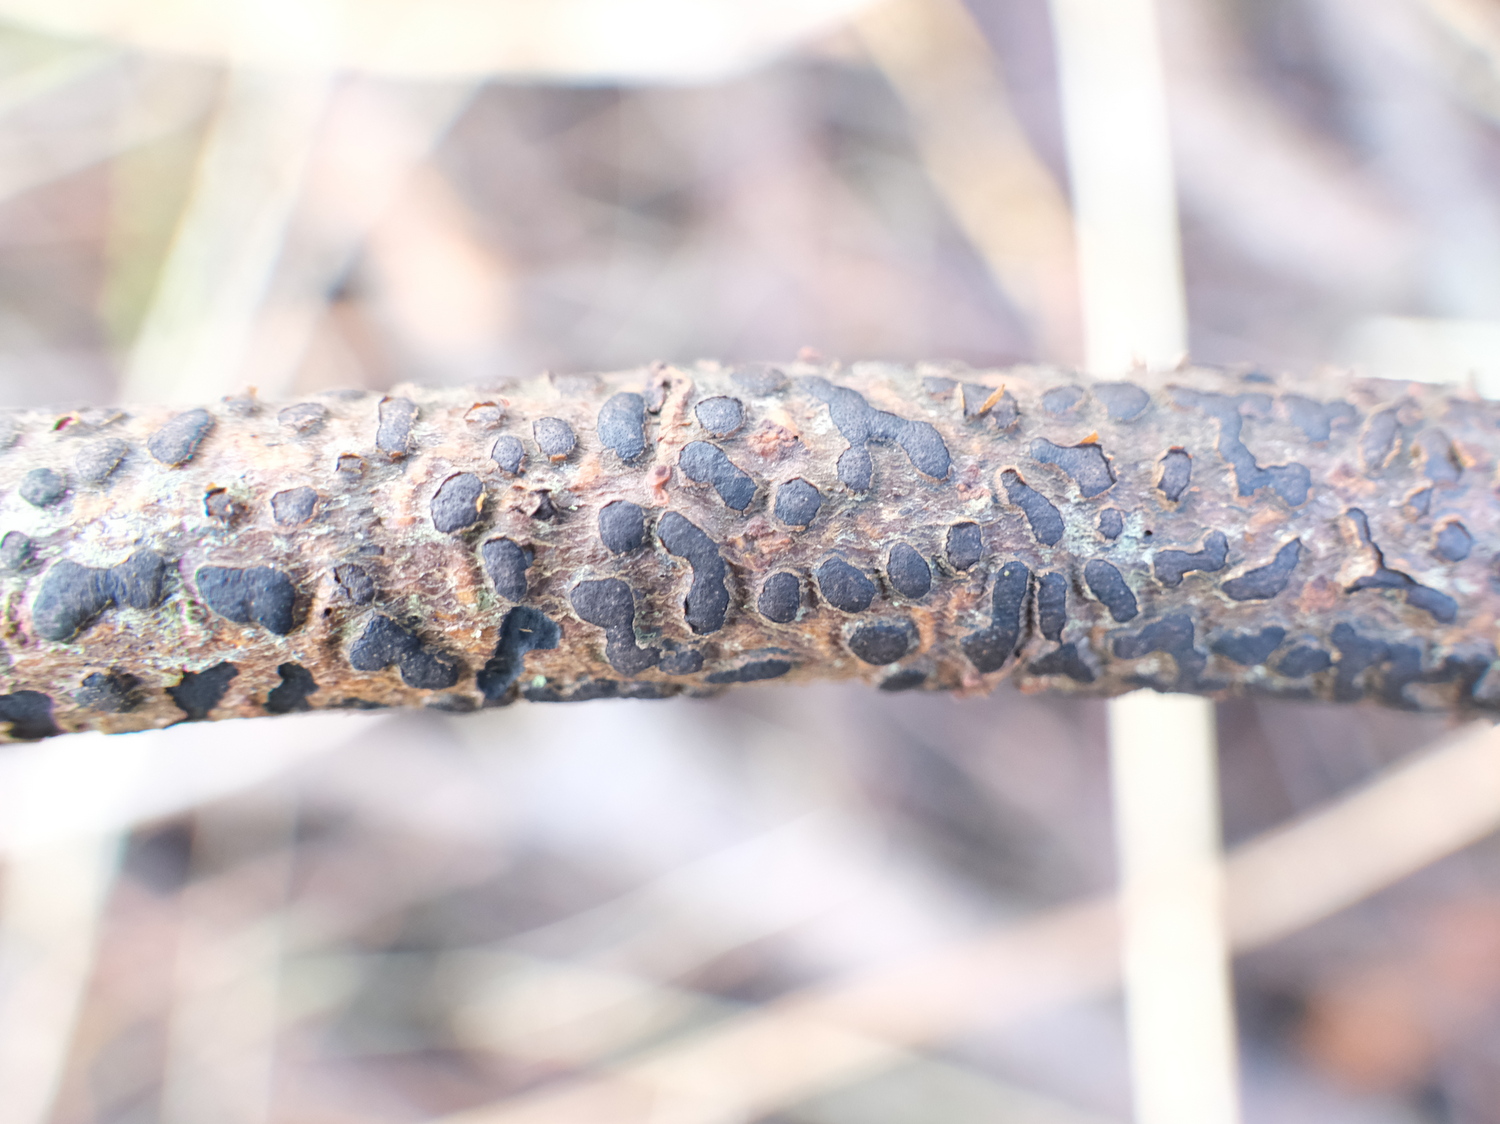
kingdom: Fungi
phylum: Ascomycota
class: Sordariomycetes
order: Xylariales
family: Diatrypaceae
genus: Diatrype
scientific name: Diatrype bullata
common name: pile-kulskorpe
